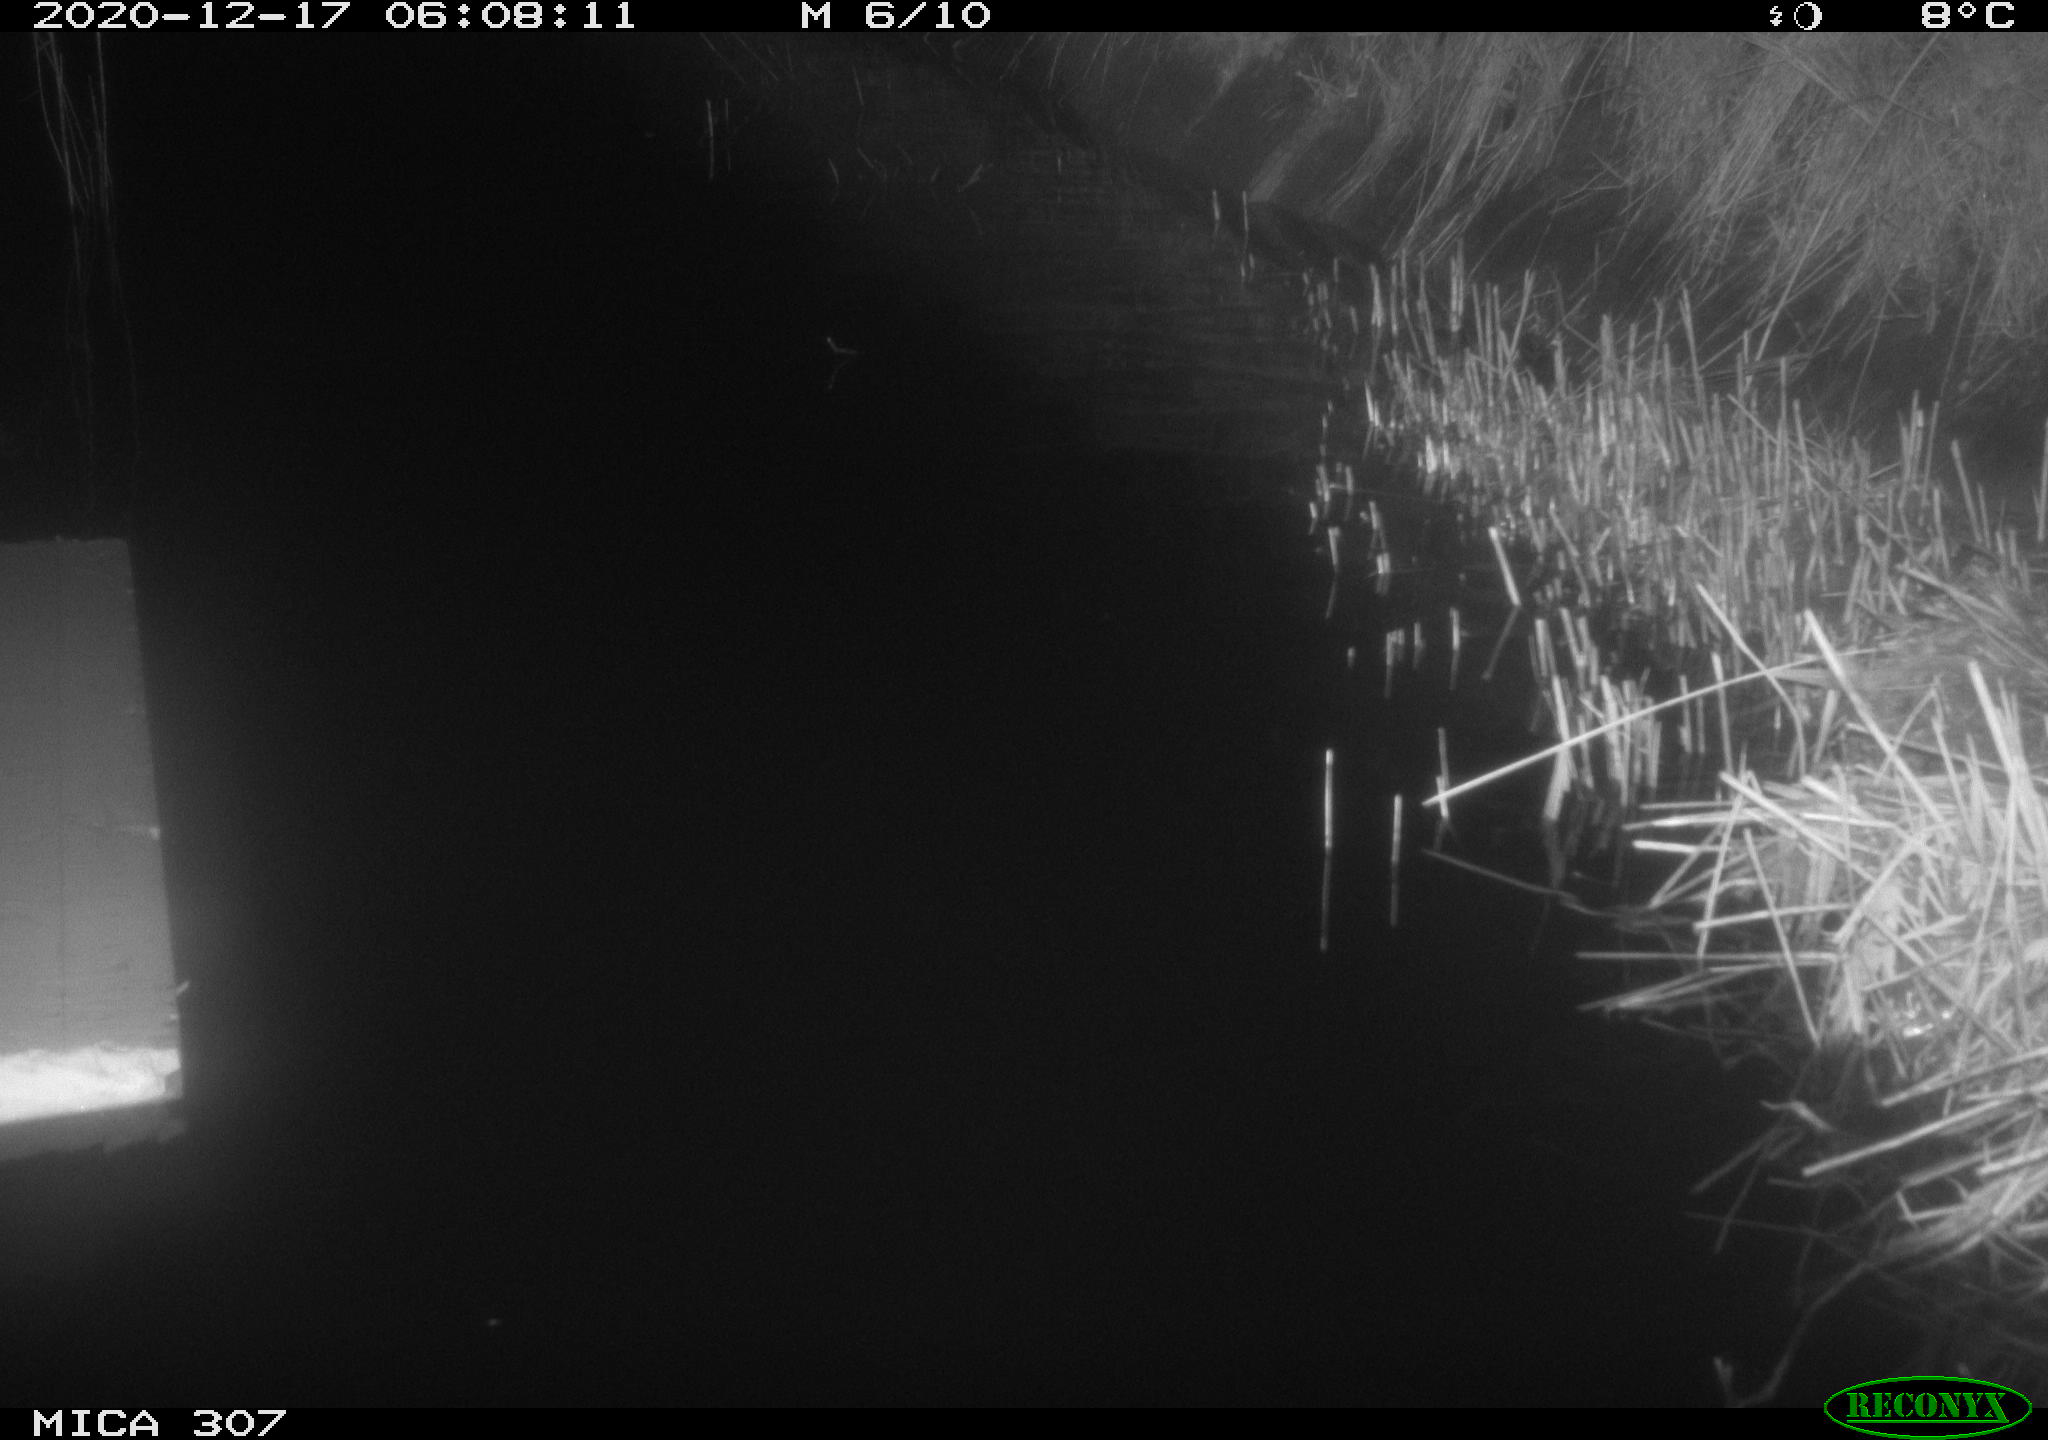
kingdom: Animalia
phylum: Chordata
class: Mammalia
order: Rodentia
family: Muridae
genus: Rattus
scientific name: Rattus norvegicus
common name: Brown rat
